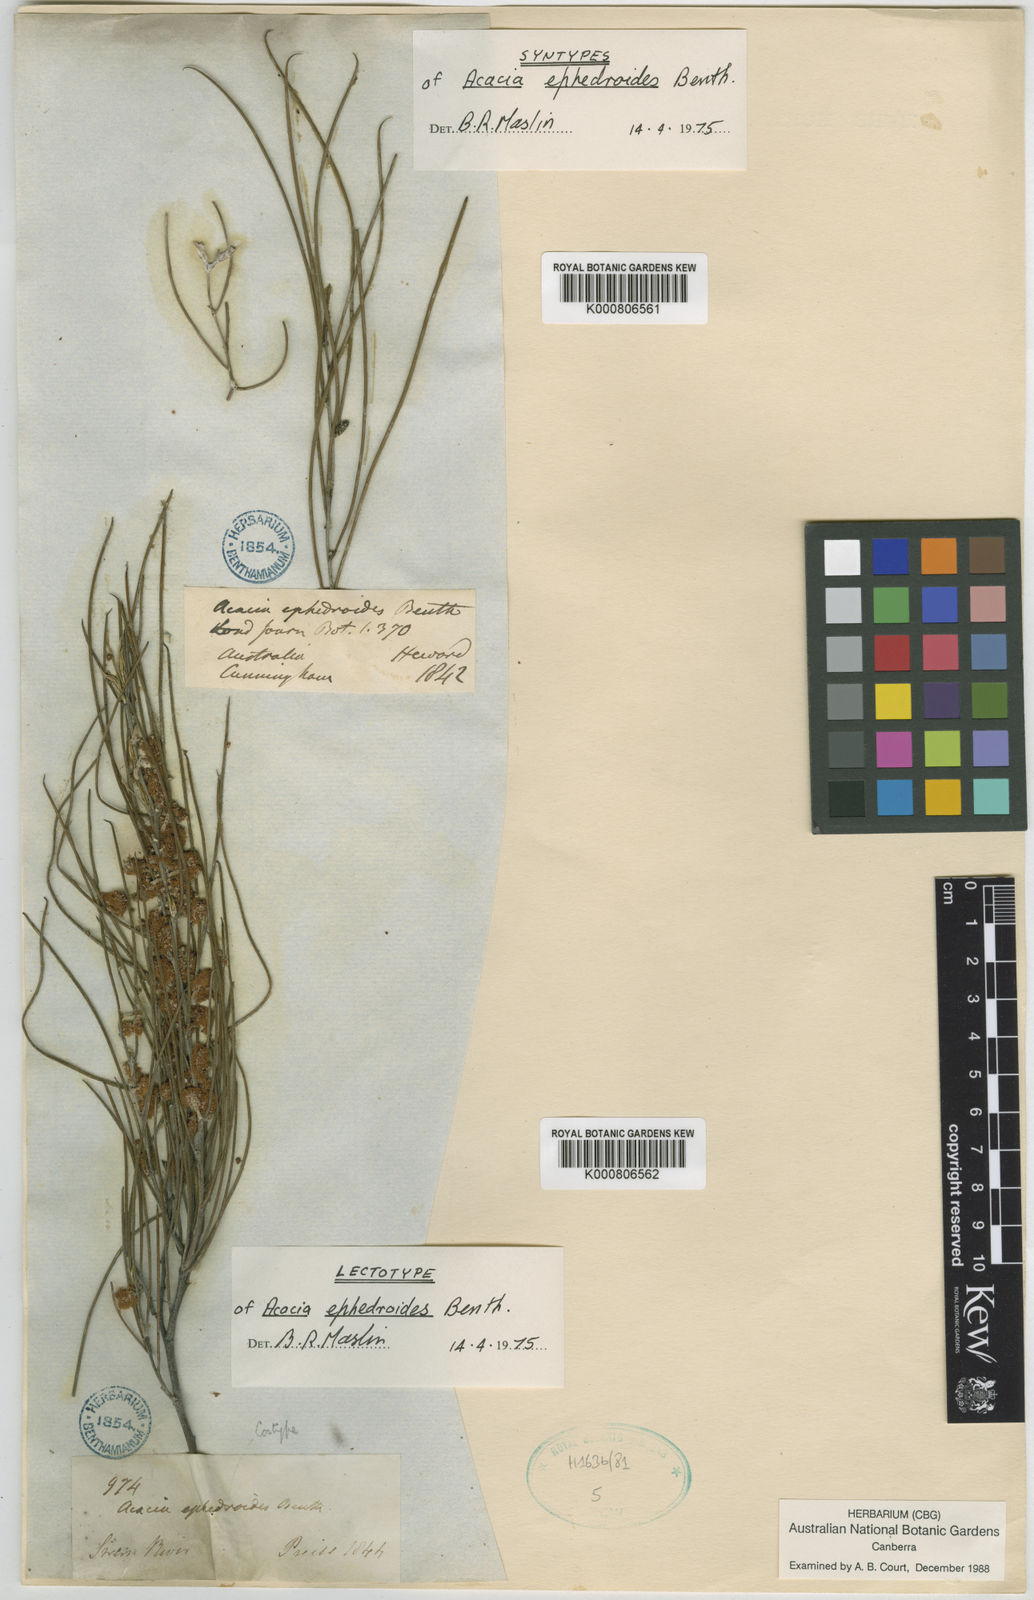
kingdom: Plantae
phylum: Tracheophyta
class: Magnoliopsida
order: Fabales
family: Fabaceae
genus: Acacia
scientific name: Acacia ephedroides
